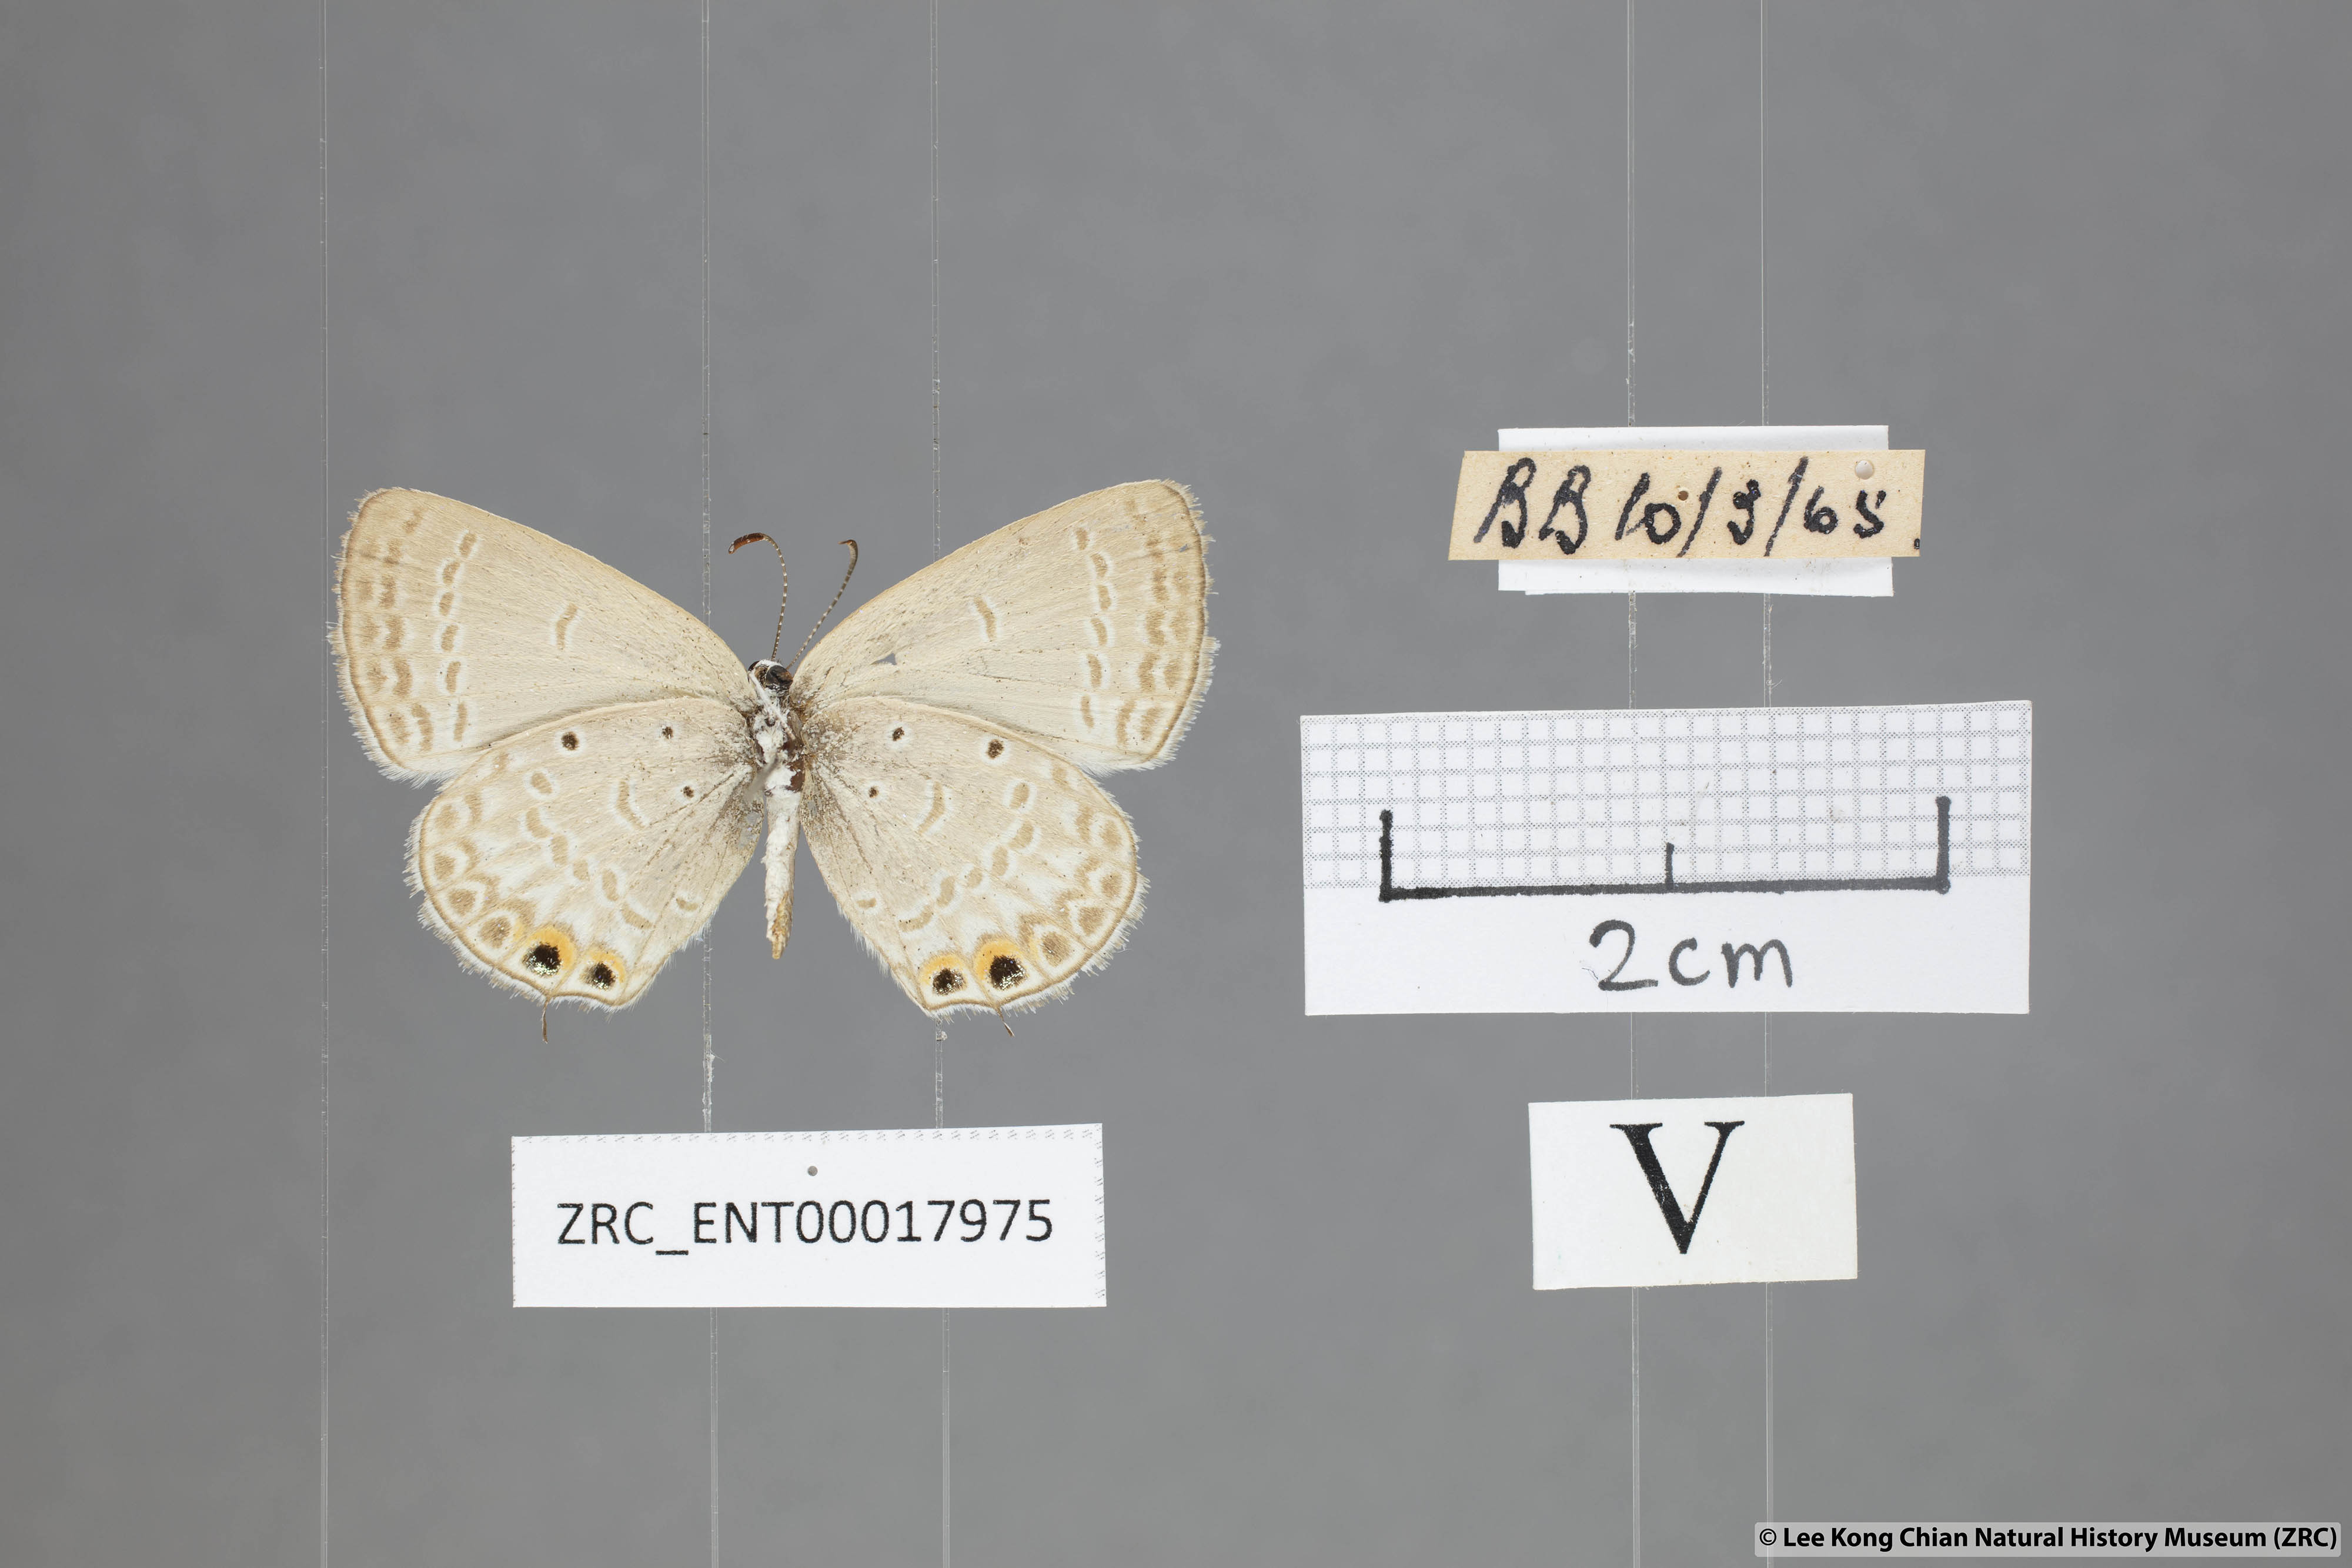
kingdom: Animalia
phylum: Arthropoda
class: Insecta
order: Lepidoptera
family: Lycaenidae
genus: Euchrysops
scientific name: Euchrysops cnejus
